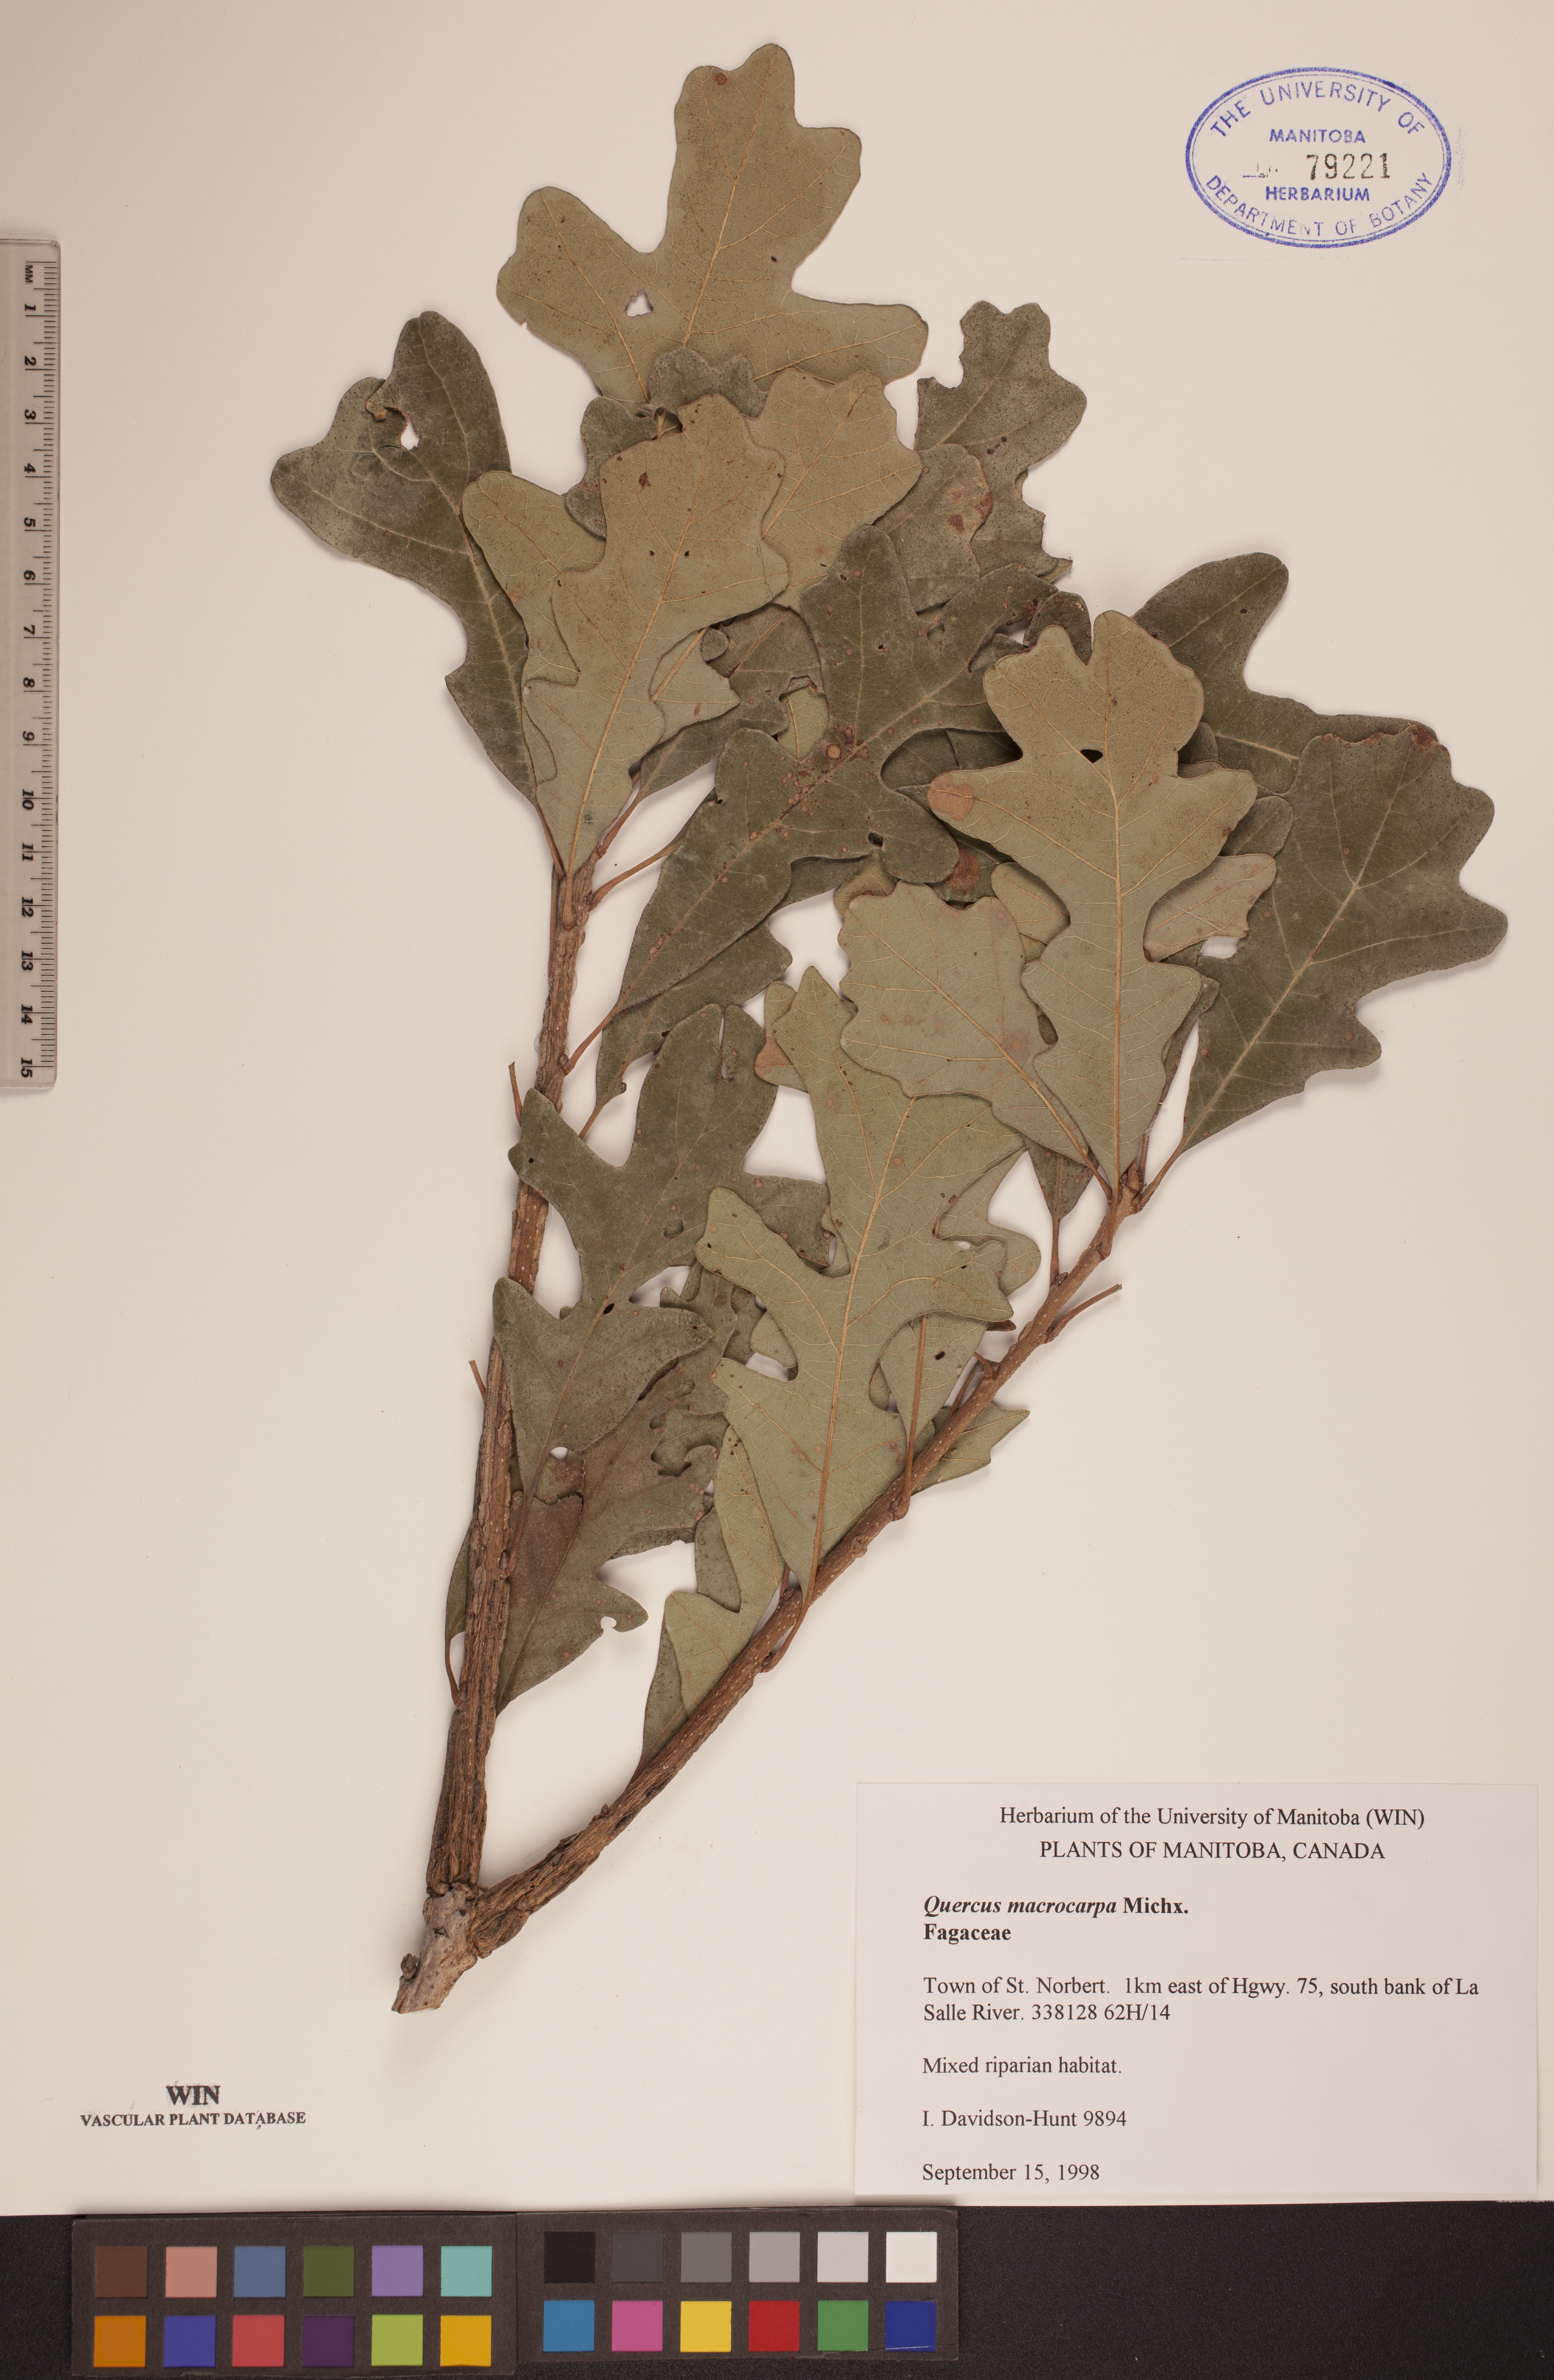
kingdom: Plantae
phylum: Tracheophyta
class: Magnoliopsida
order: Fagales
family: Fagaceae
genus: Quercus
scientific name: Quercus macrocarpa
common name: Bur oak
